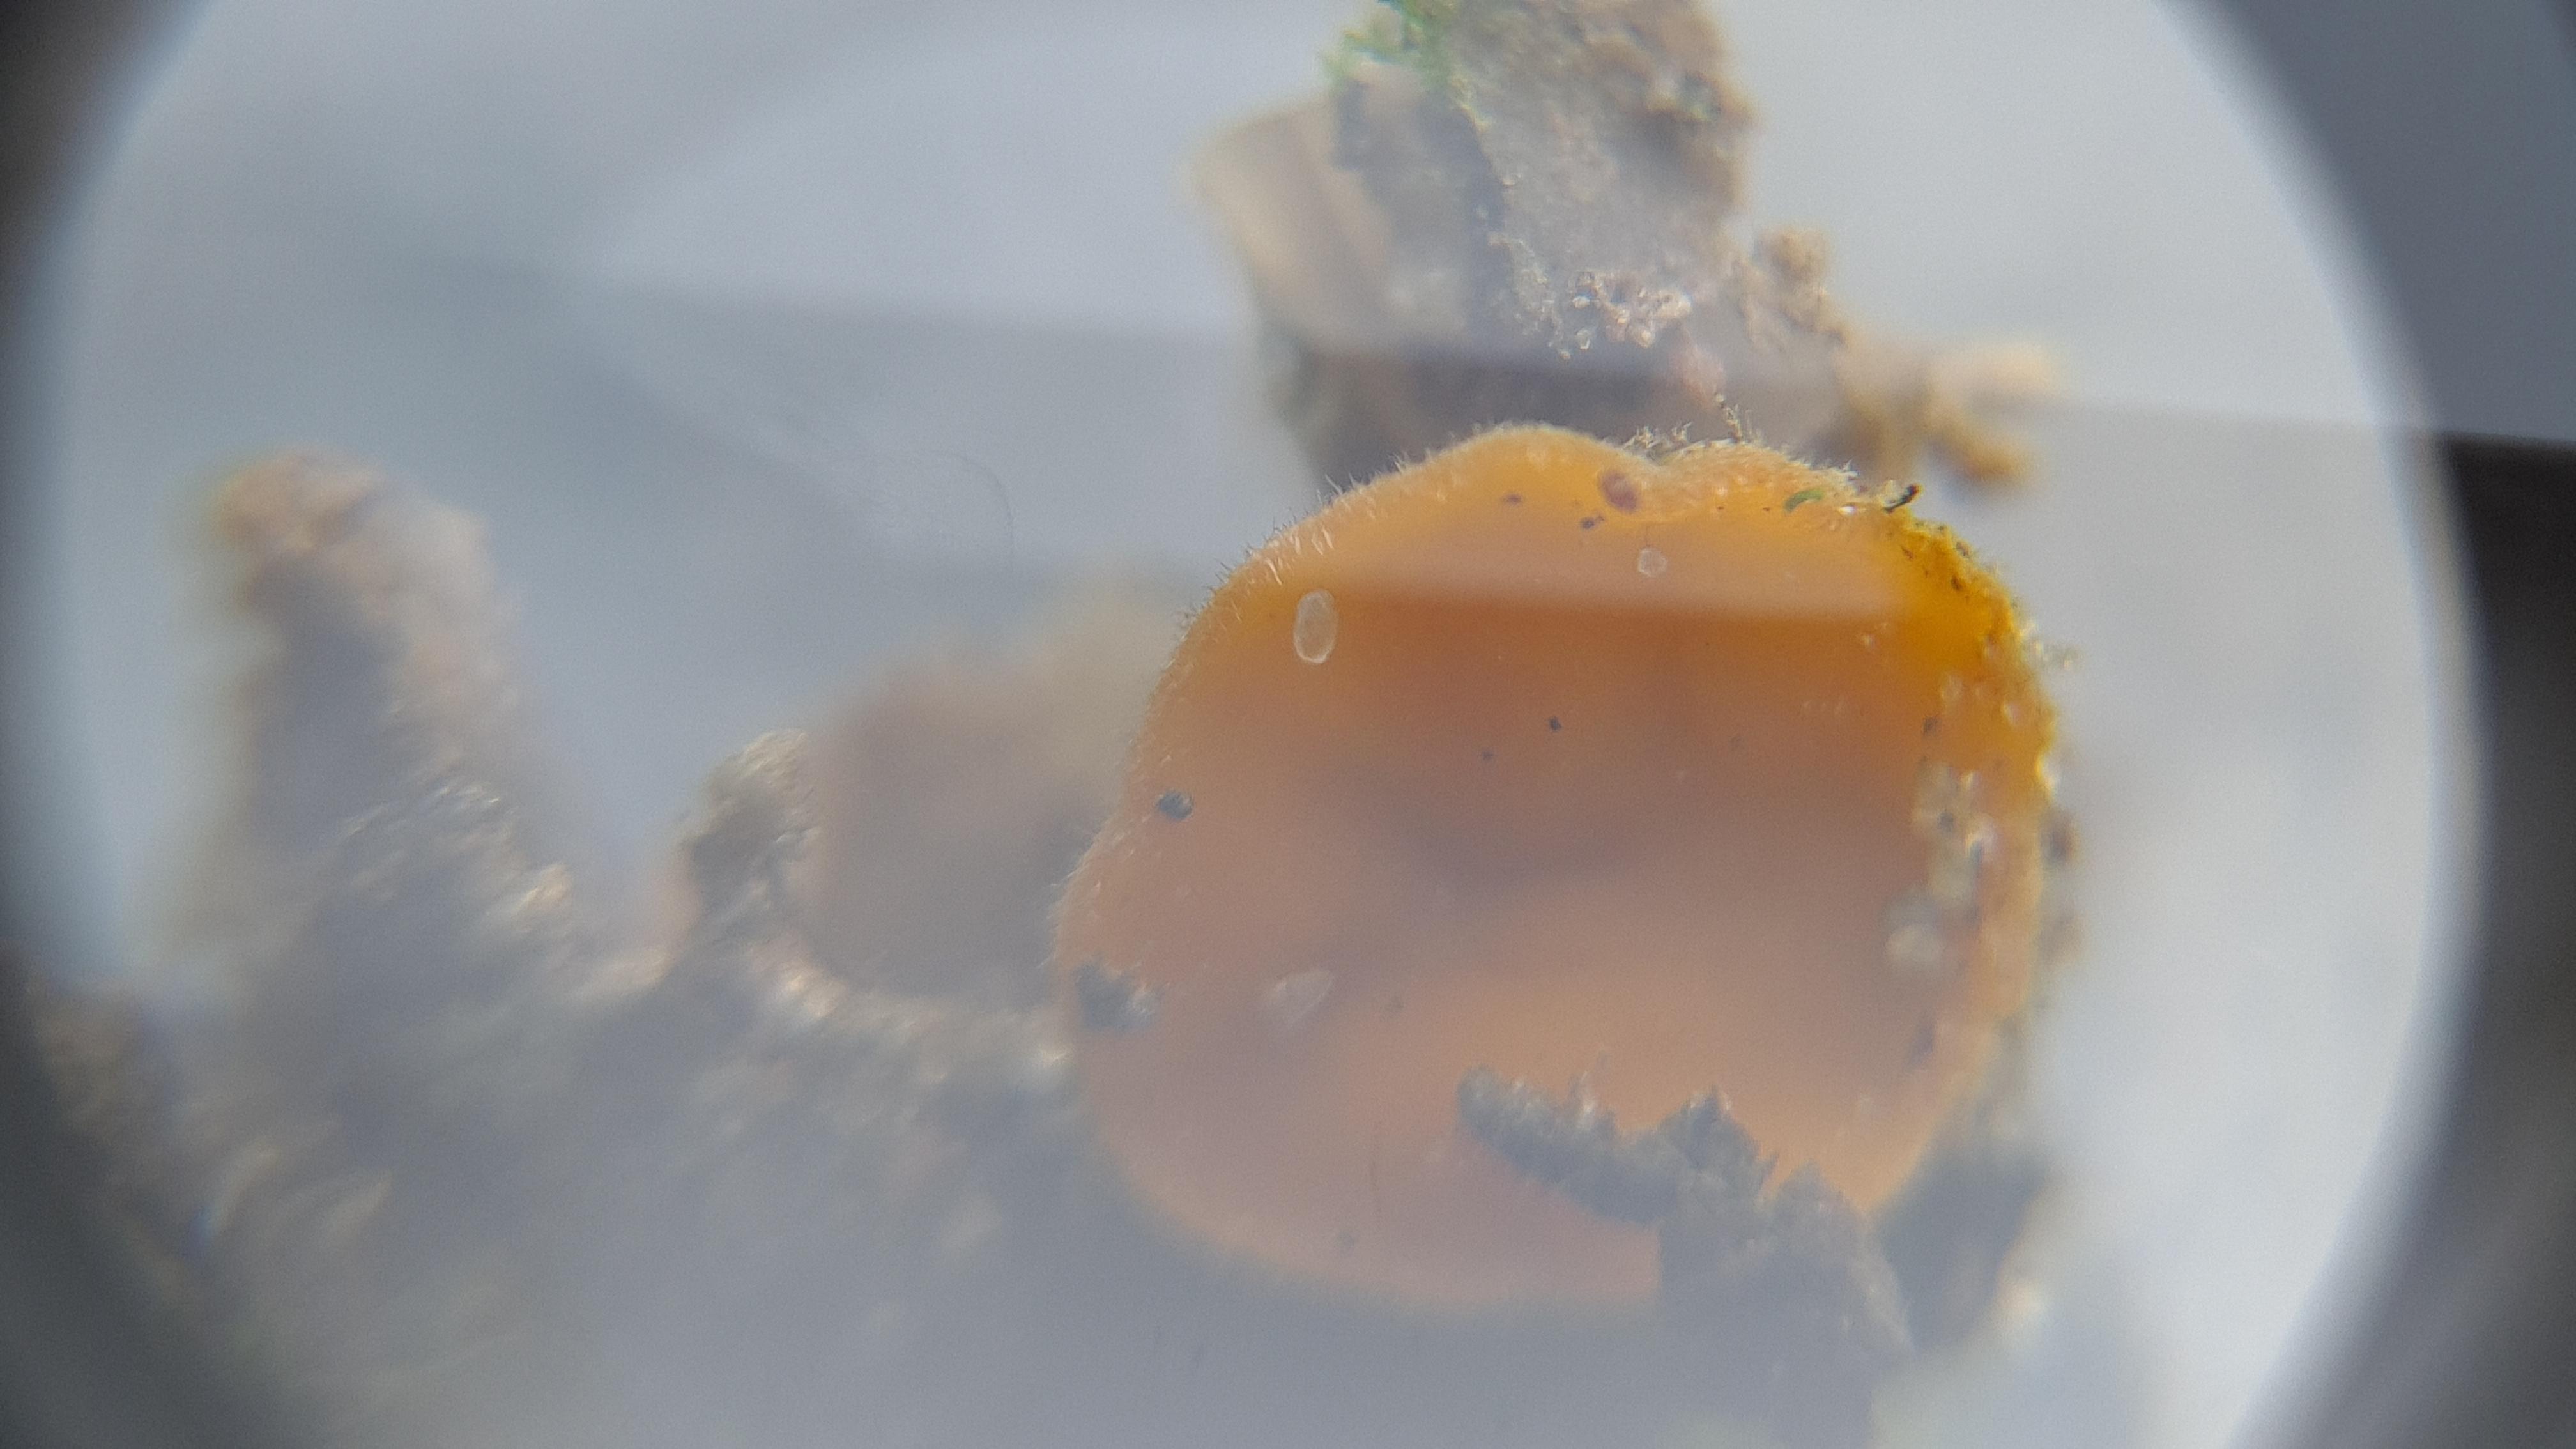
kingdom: Fungi
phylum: Ascomycota
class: Pezizomycetes
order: Pezizales
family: Pyronemataceae
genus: Cheilymenia
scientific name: Cheilymenia vitellina
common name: æggegul hårbæger
